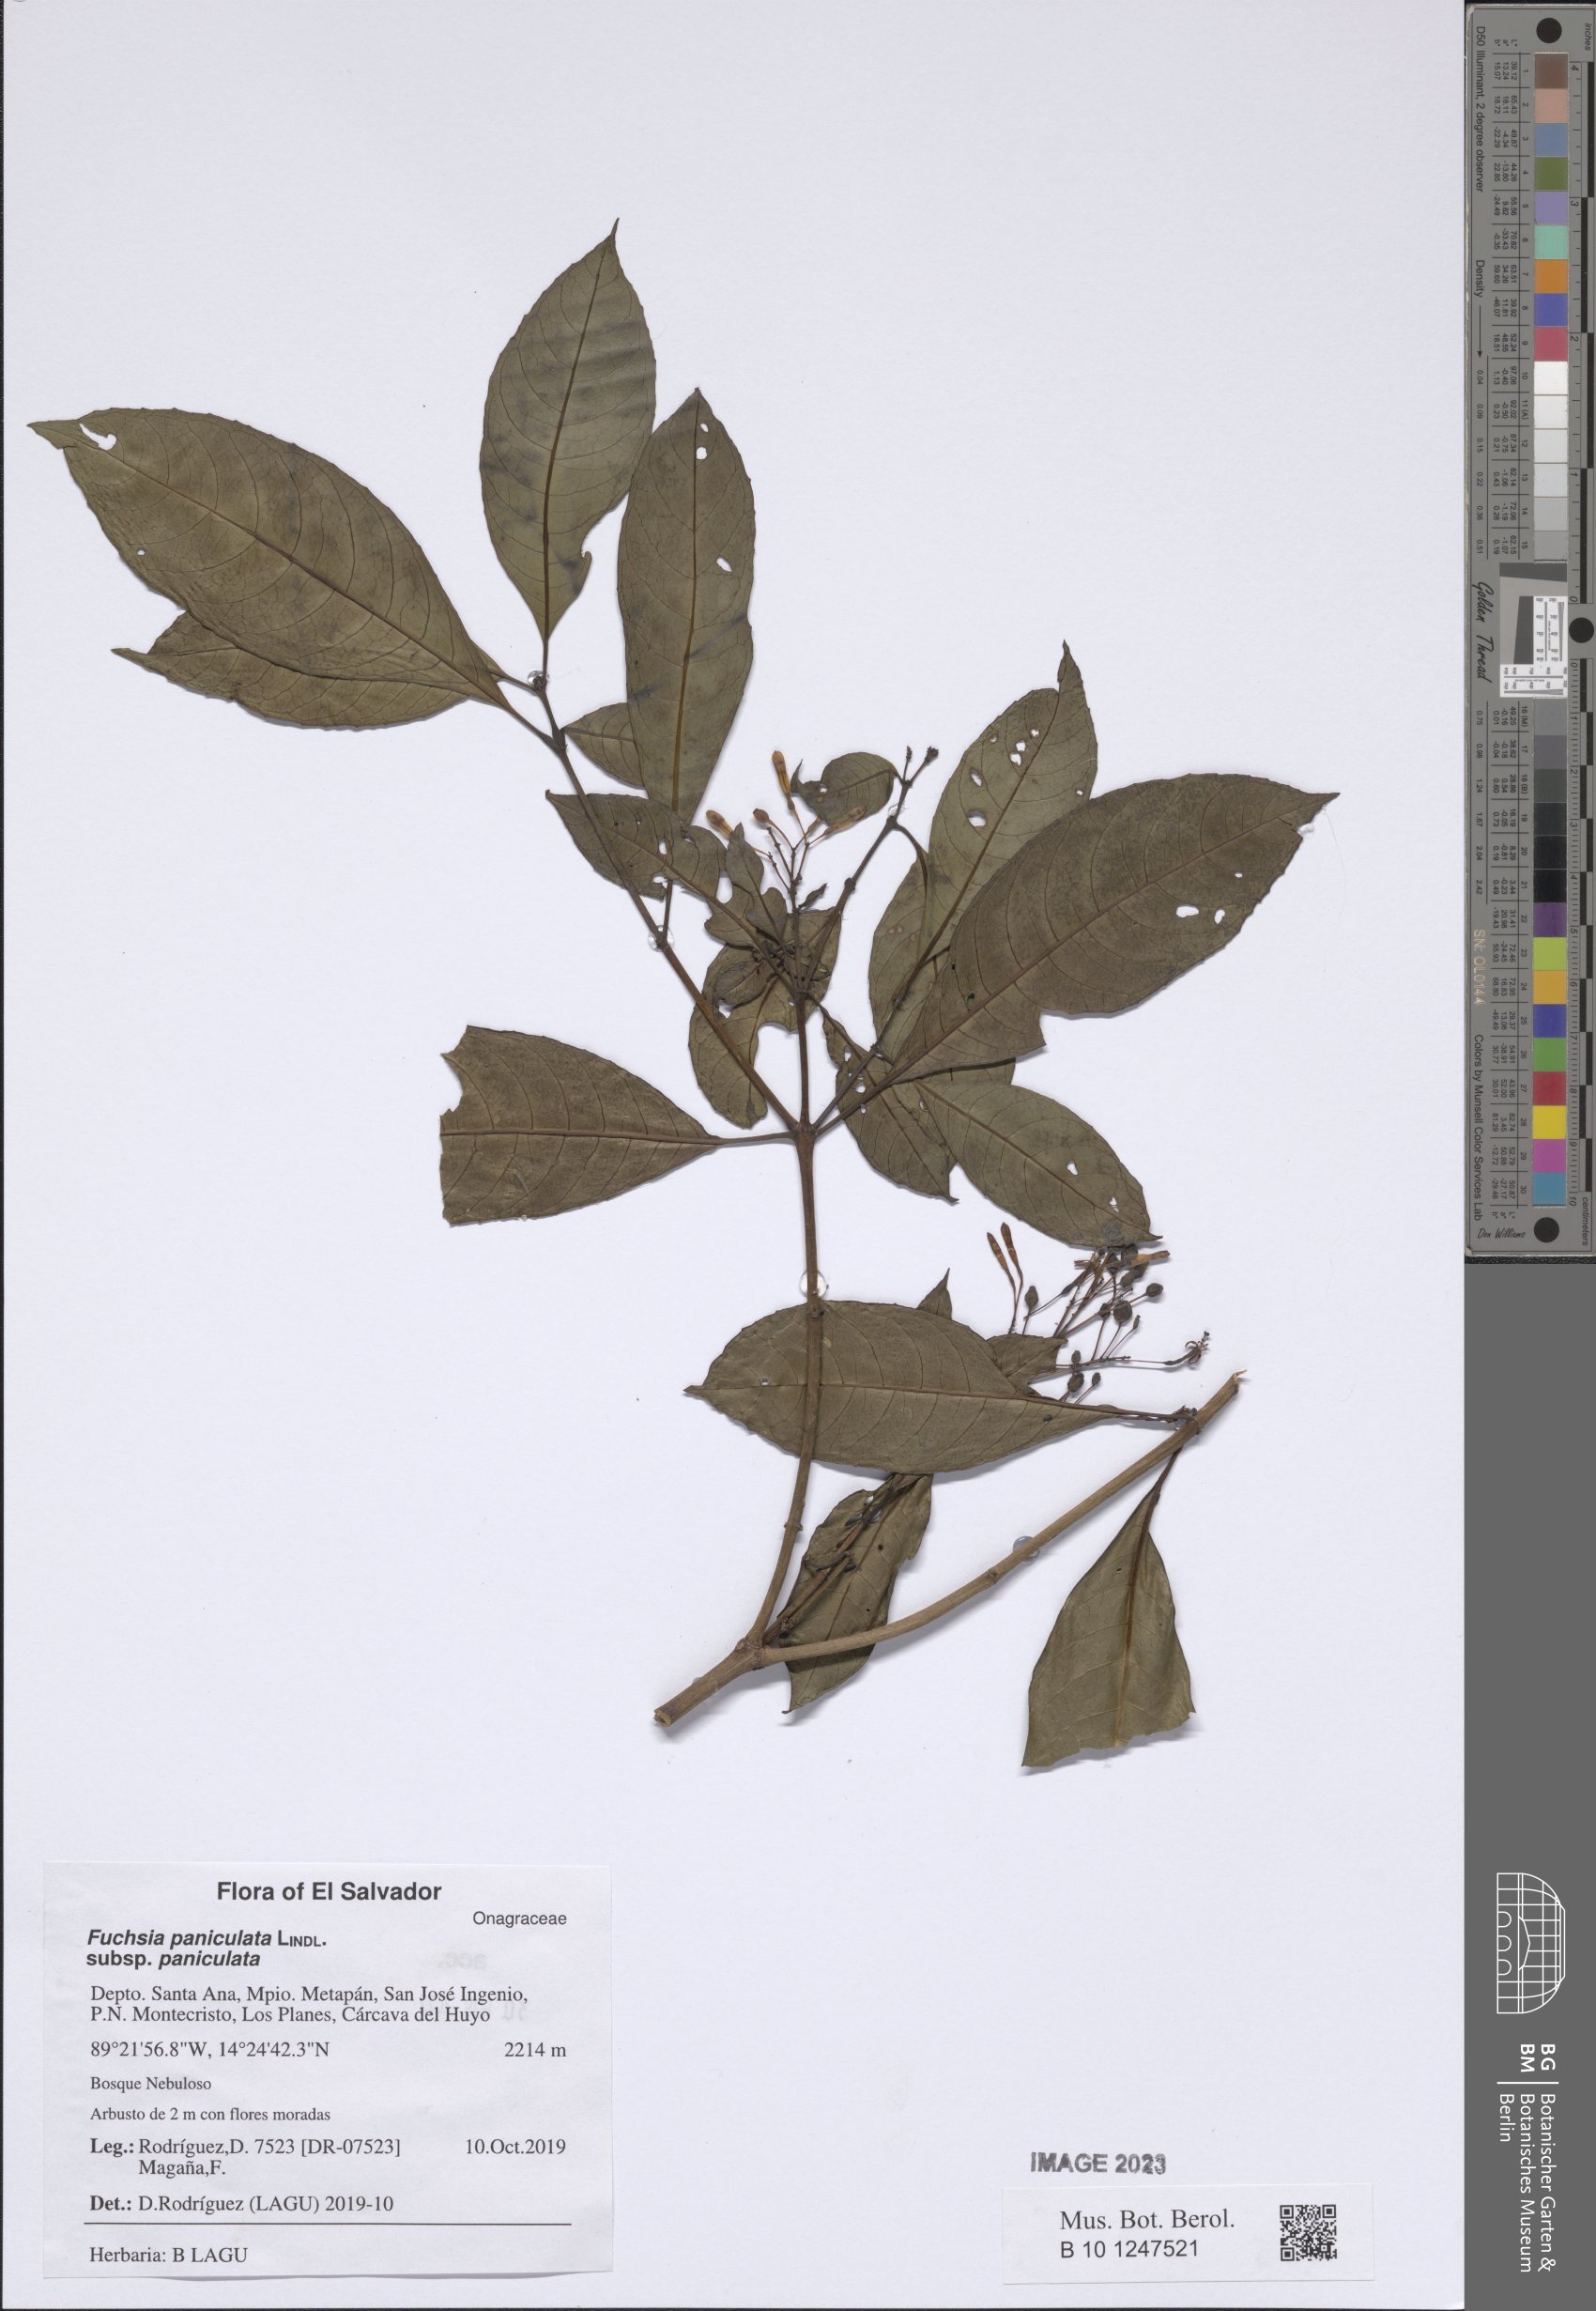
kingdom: Plantae
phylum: Tracheophyta
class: Magnoliopsida
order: Myrtales
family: Onagraceae
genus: Fuchsia
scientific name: Fuchsia paniculata
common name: Shrubby fuchsia
